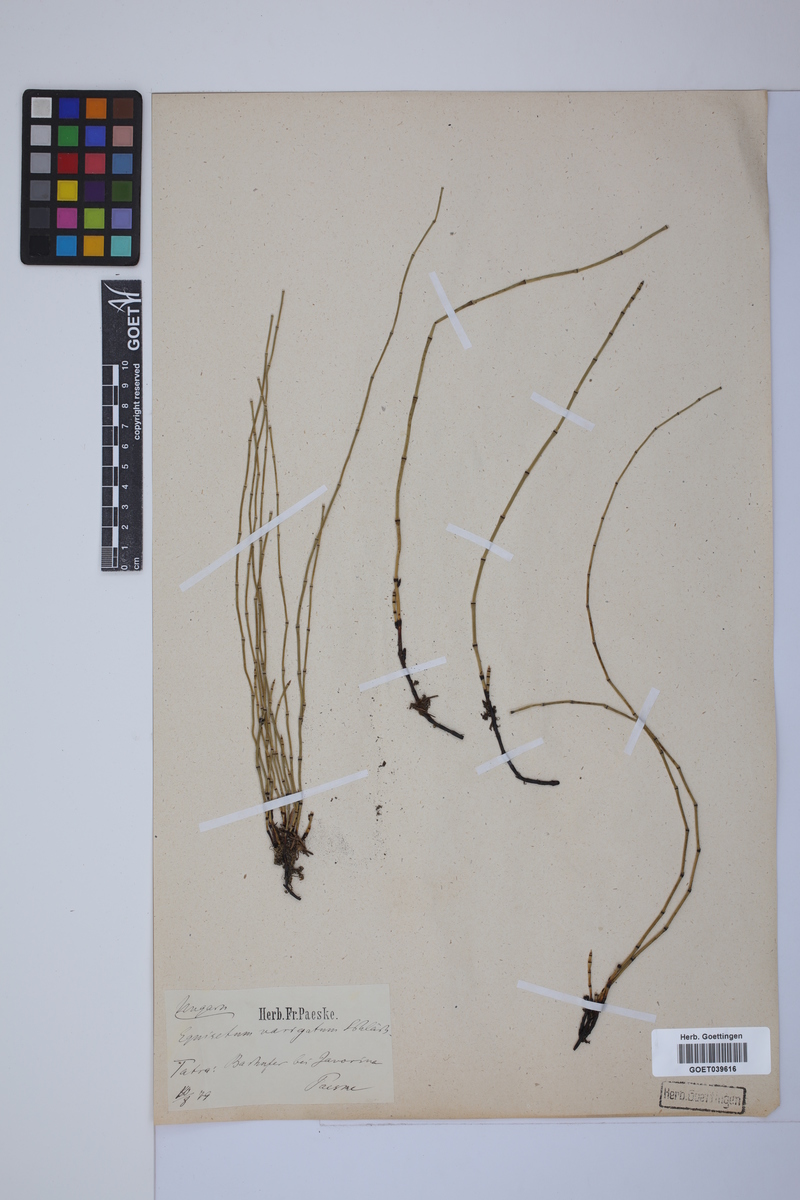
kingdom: Plantae
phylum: Tracheophyta
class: Polypodiopsida
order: Equisetales
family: Equisetaceae
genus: Equisetum
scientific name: Equisetum variegatum
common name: Variegated horsetail
